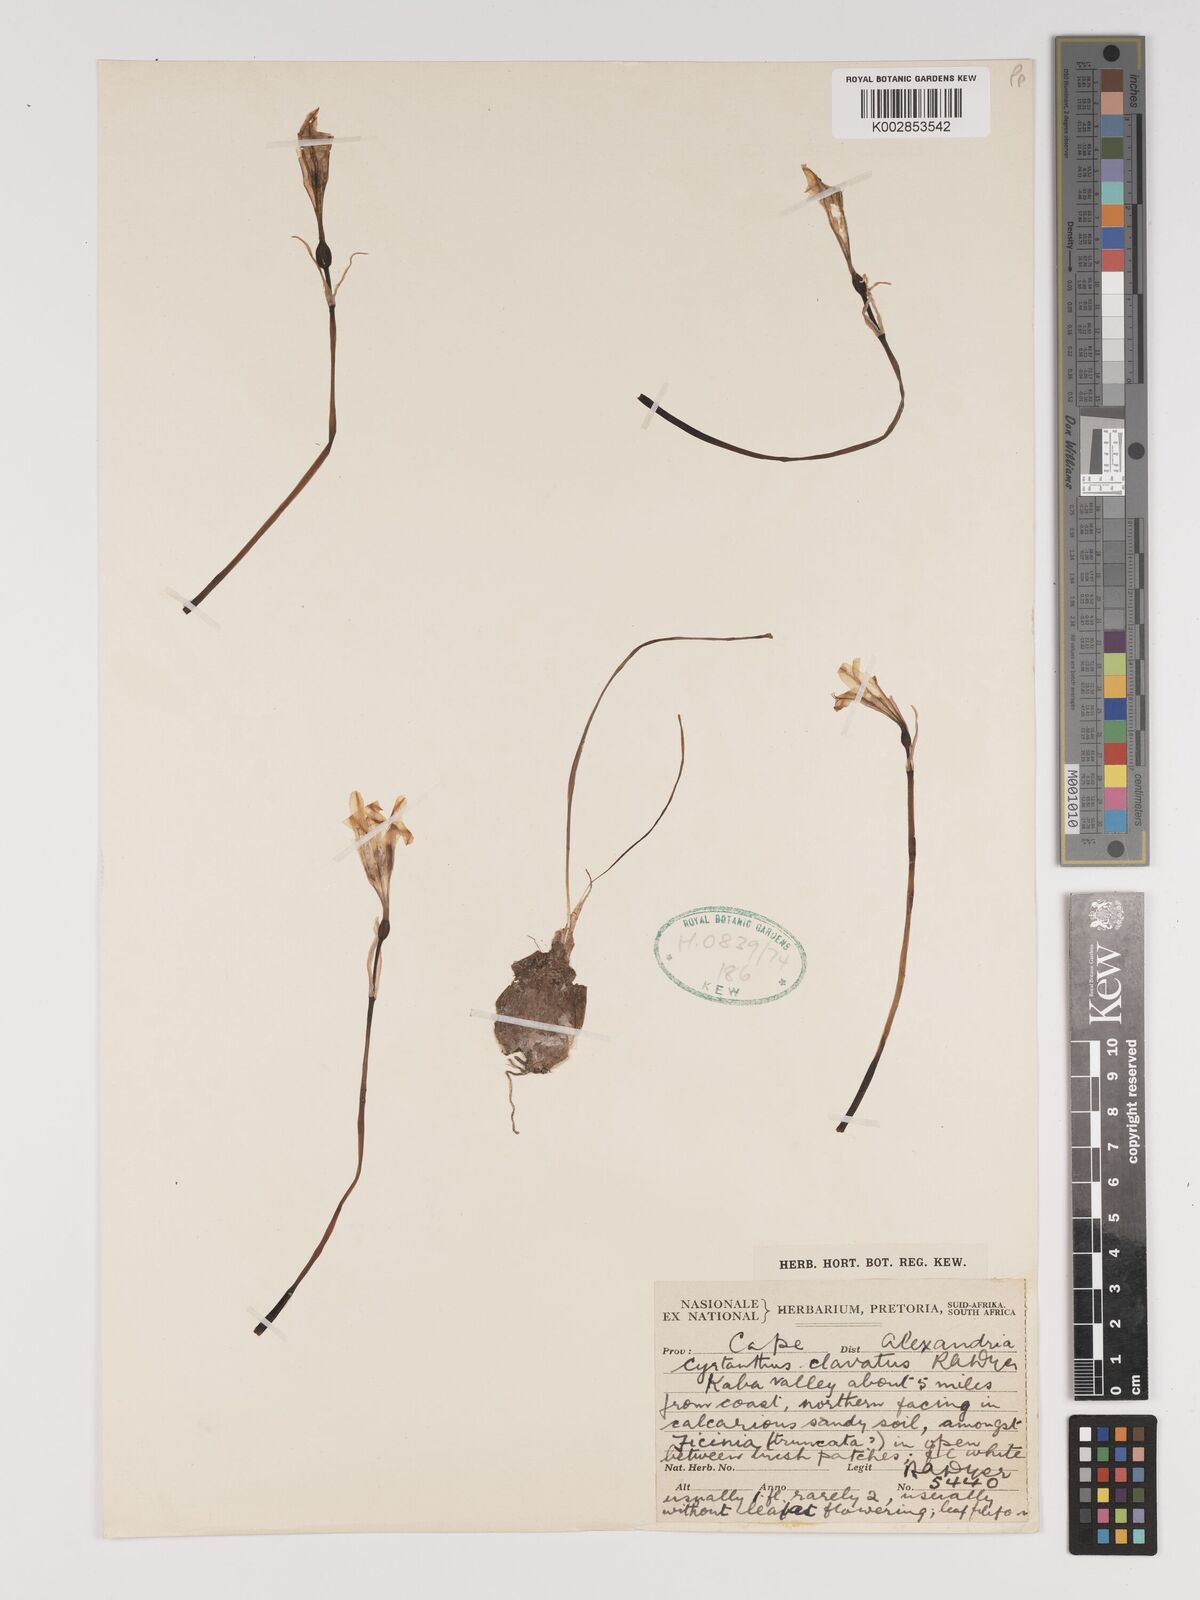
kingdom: Plantae
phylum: Tracheophyta
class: Liliopsida
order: Asparagales
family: Amaryllidaceae
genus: Cyrtanthus
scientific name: Cyrtanthus clavatus
